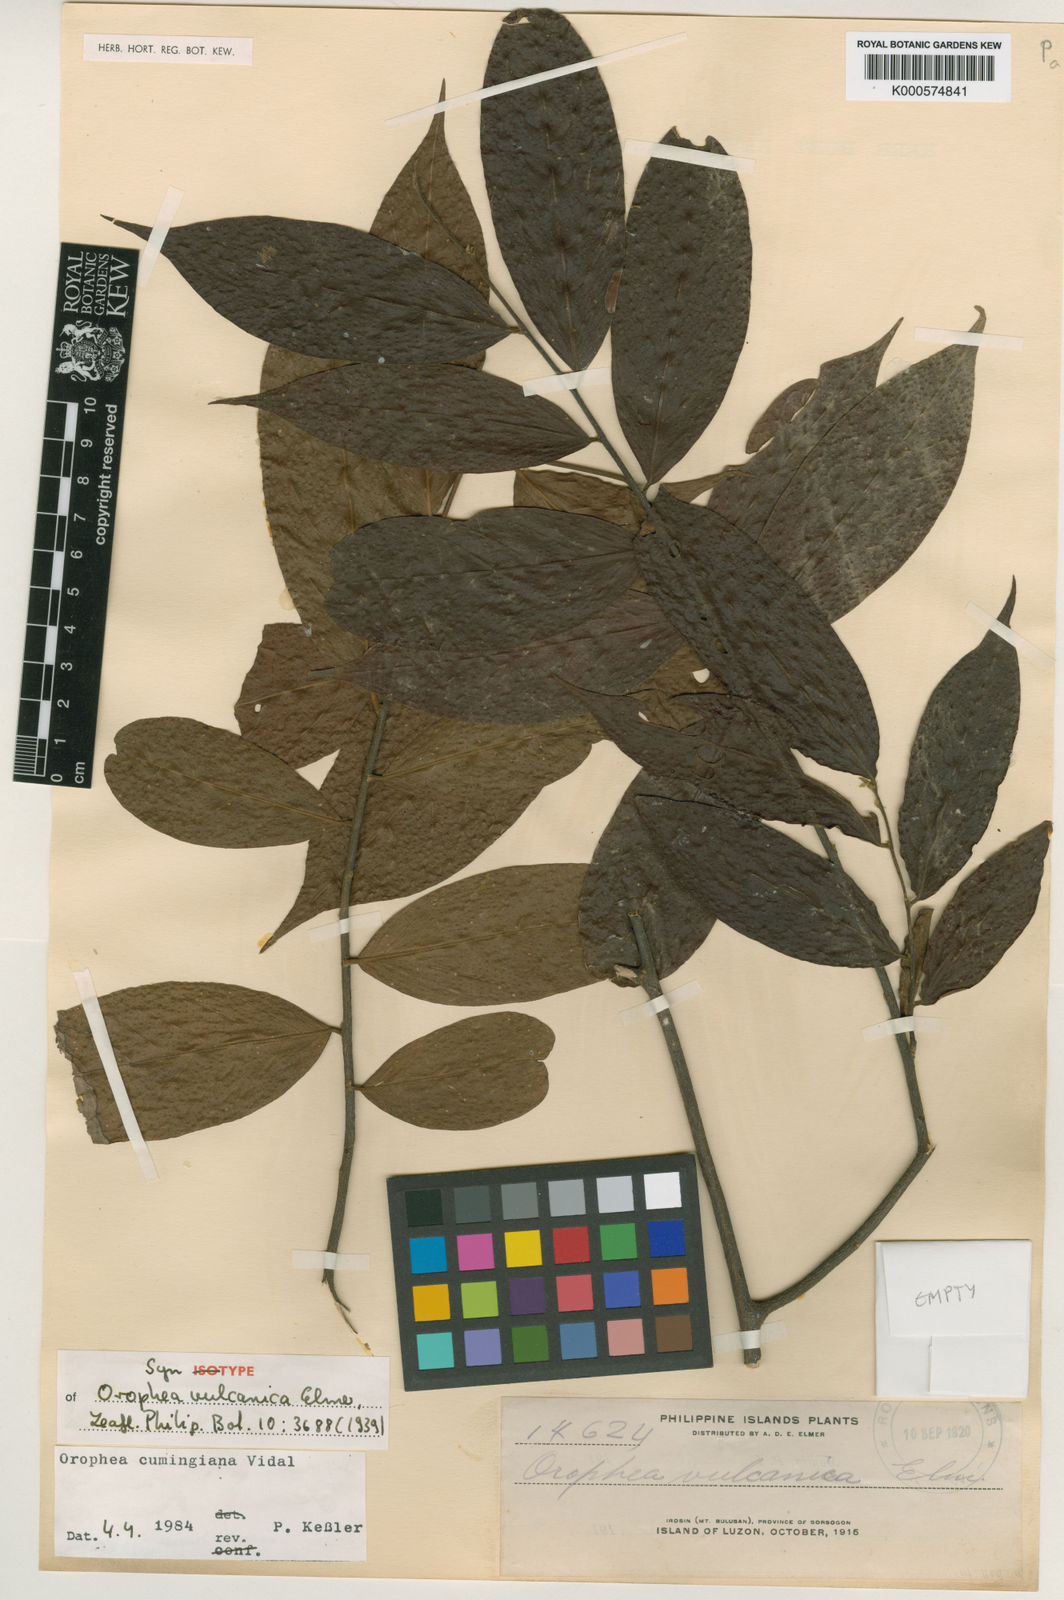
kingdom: Plantae
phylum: Tracheophyta
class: Magnoliopsida
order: Magnoliales
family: Annonaceae
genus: Orophea
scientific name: Orophea cumingiana
